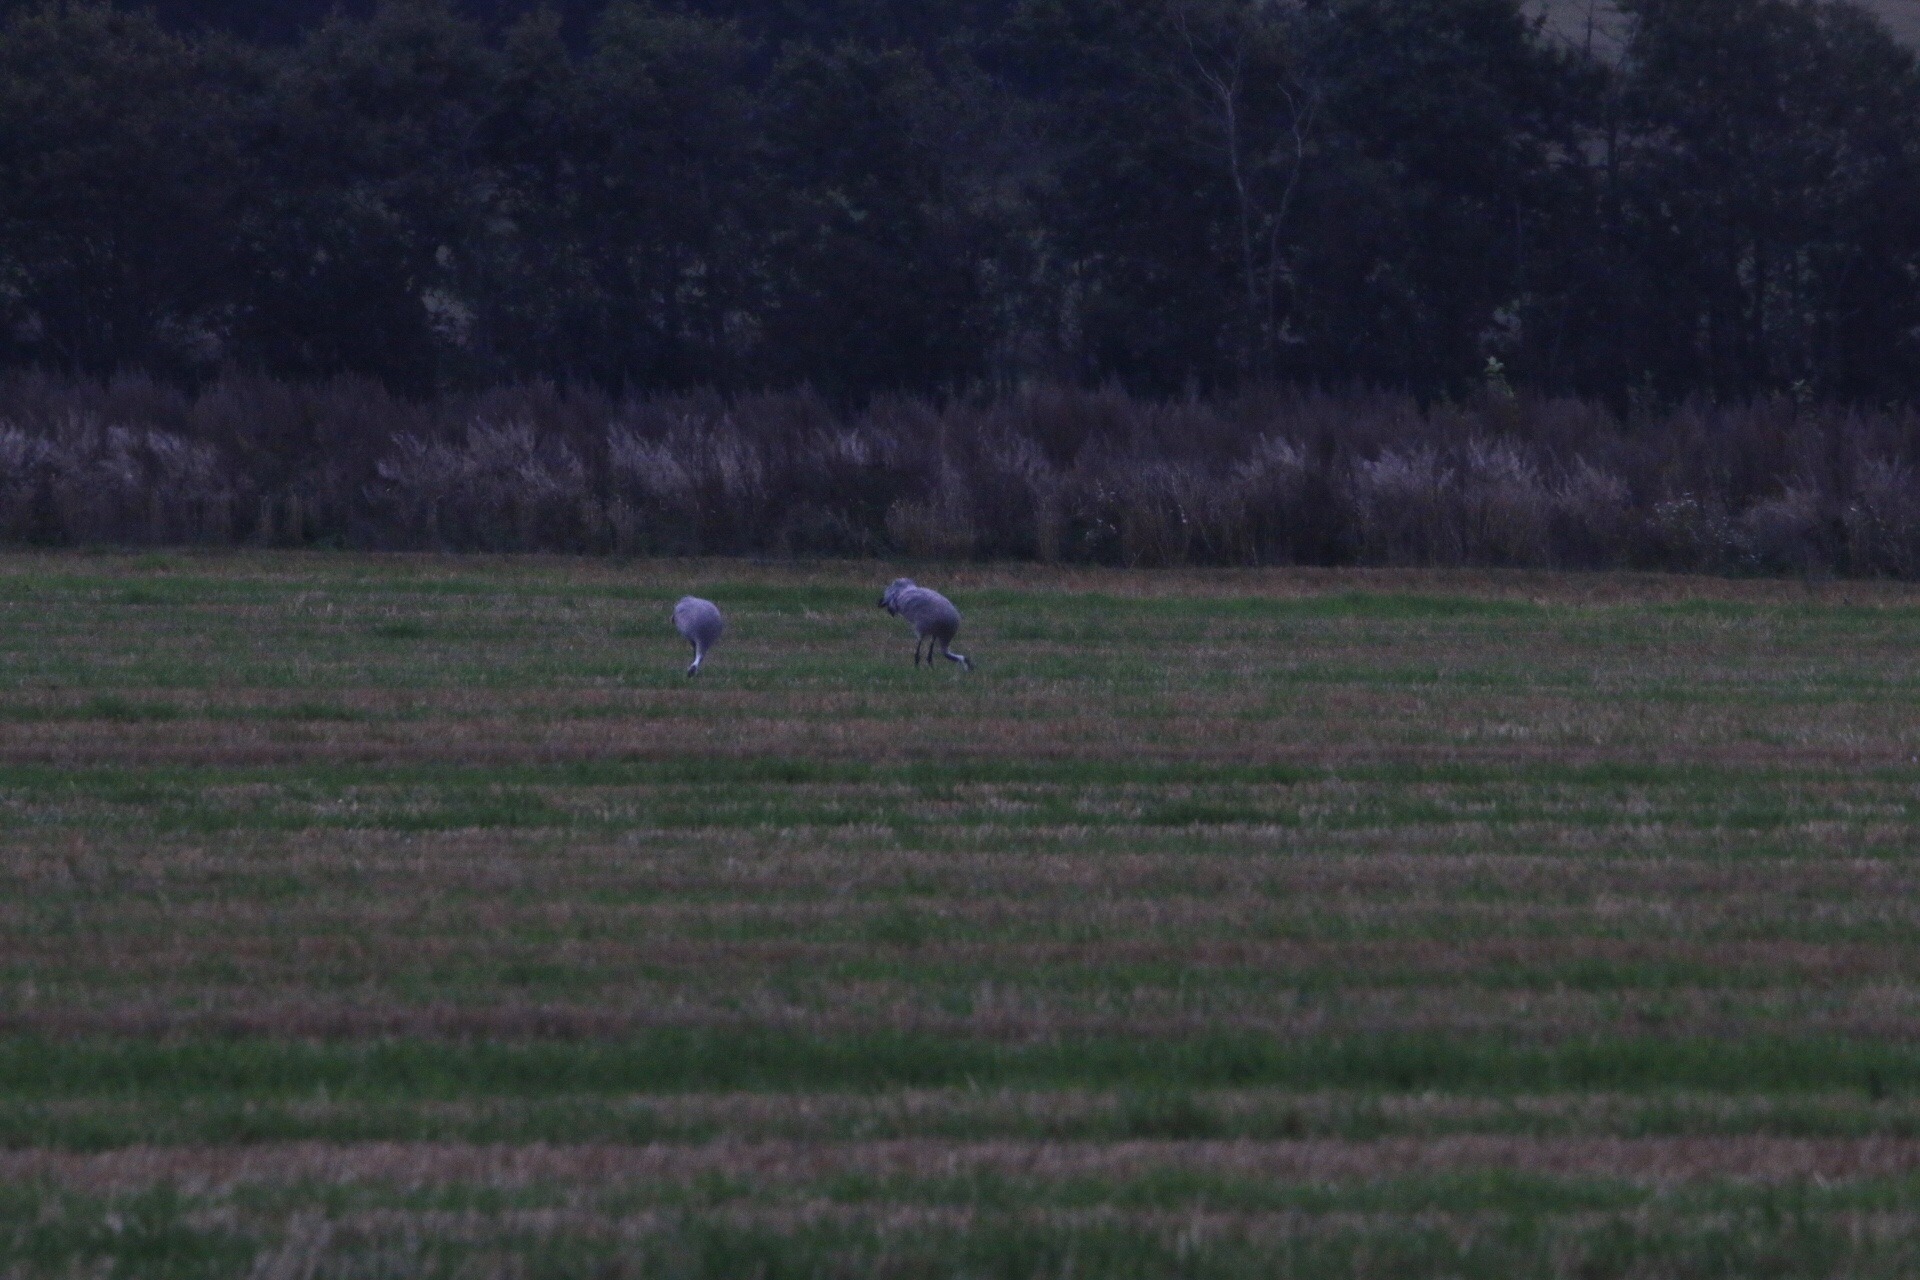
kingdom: Animalia
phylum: Chordata
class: Aves
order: Gruiformes
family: Gruidae
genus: Grus
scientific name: Grus grus
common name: Trane
